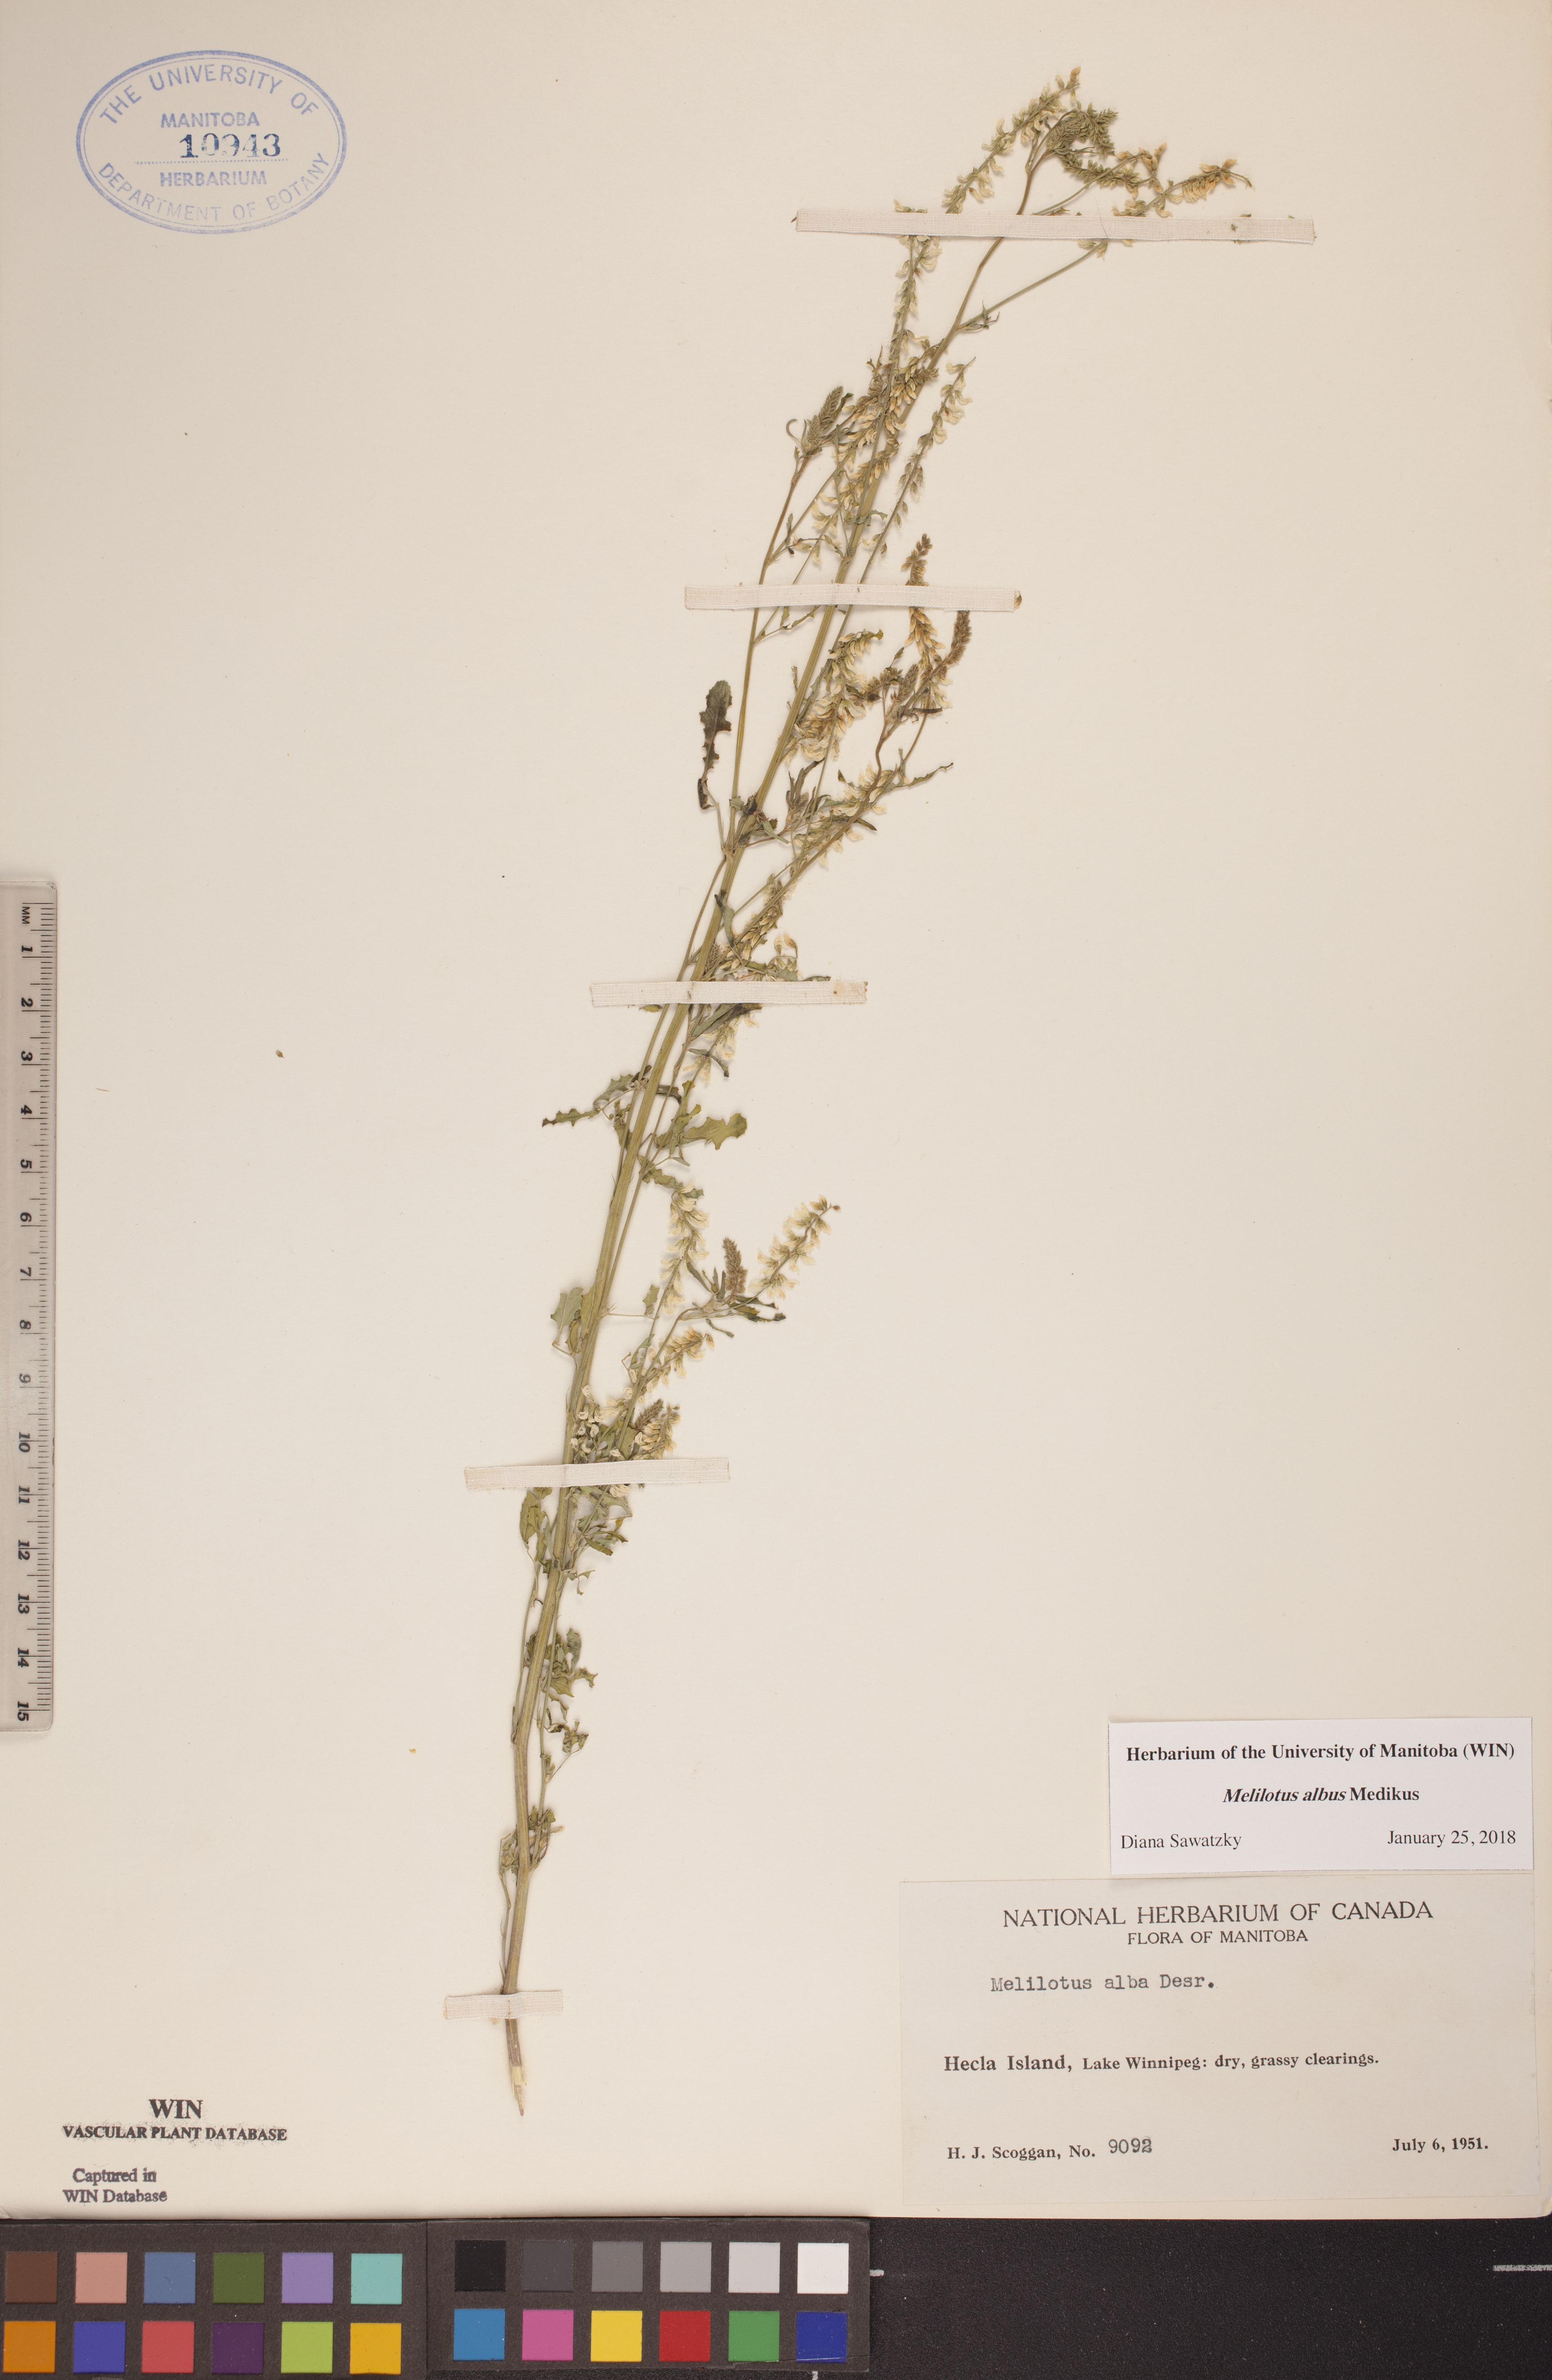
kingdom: Plantae
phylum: Tracheophyta
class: Magnoliopsida
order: Fabales
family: Fabaceae
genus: Melilotus
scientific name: Melilotus albus
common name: White melilot
